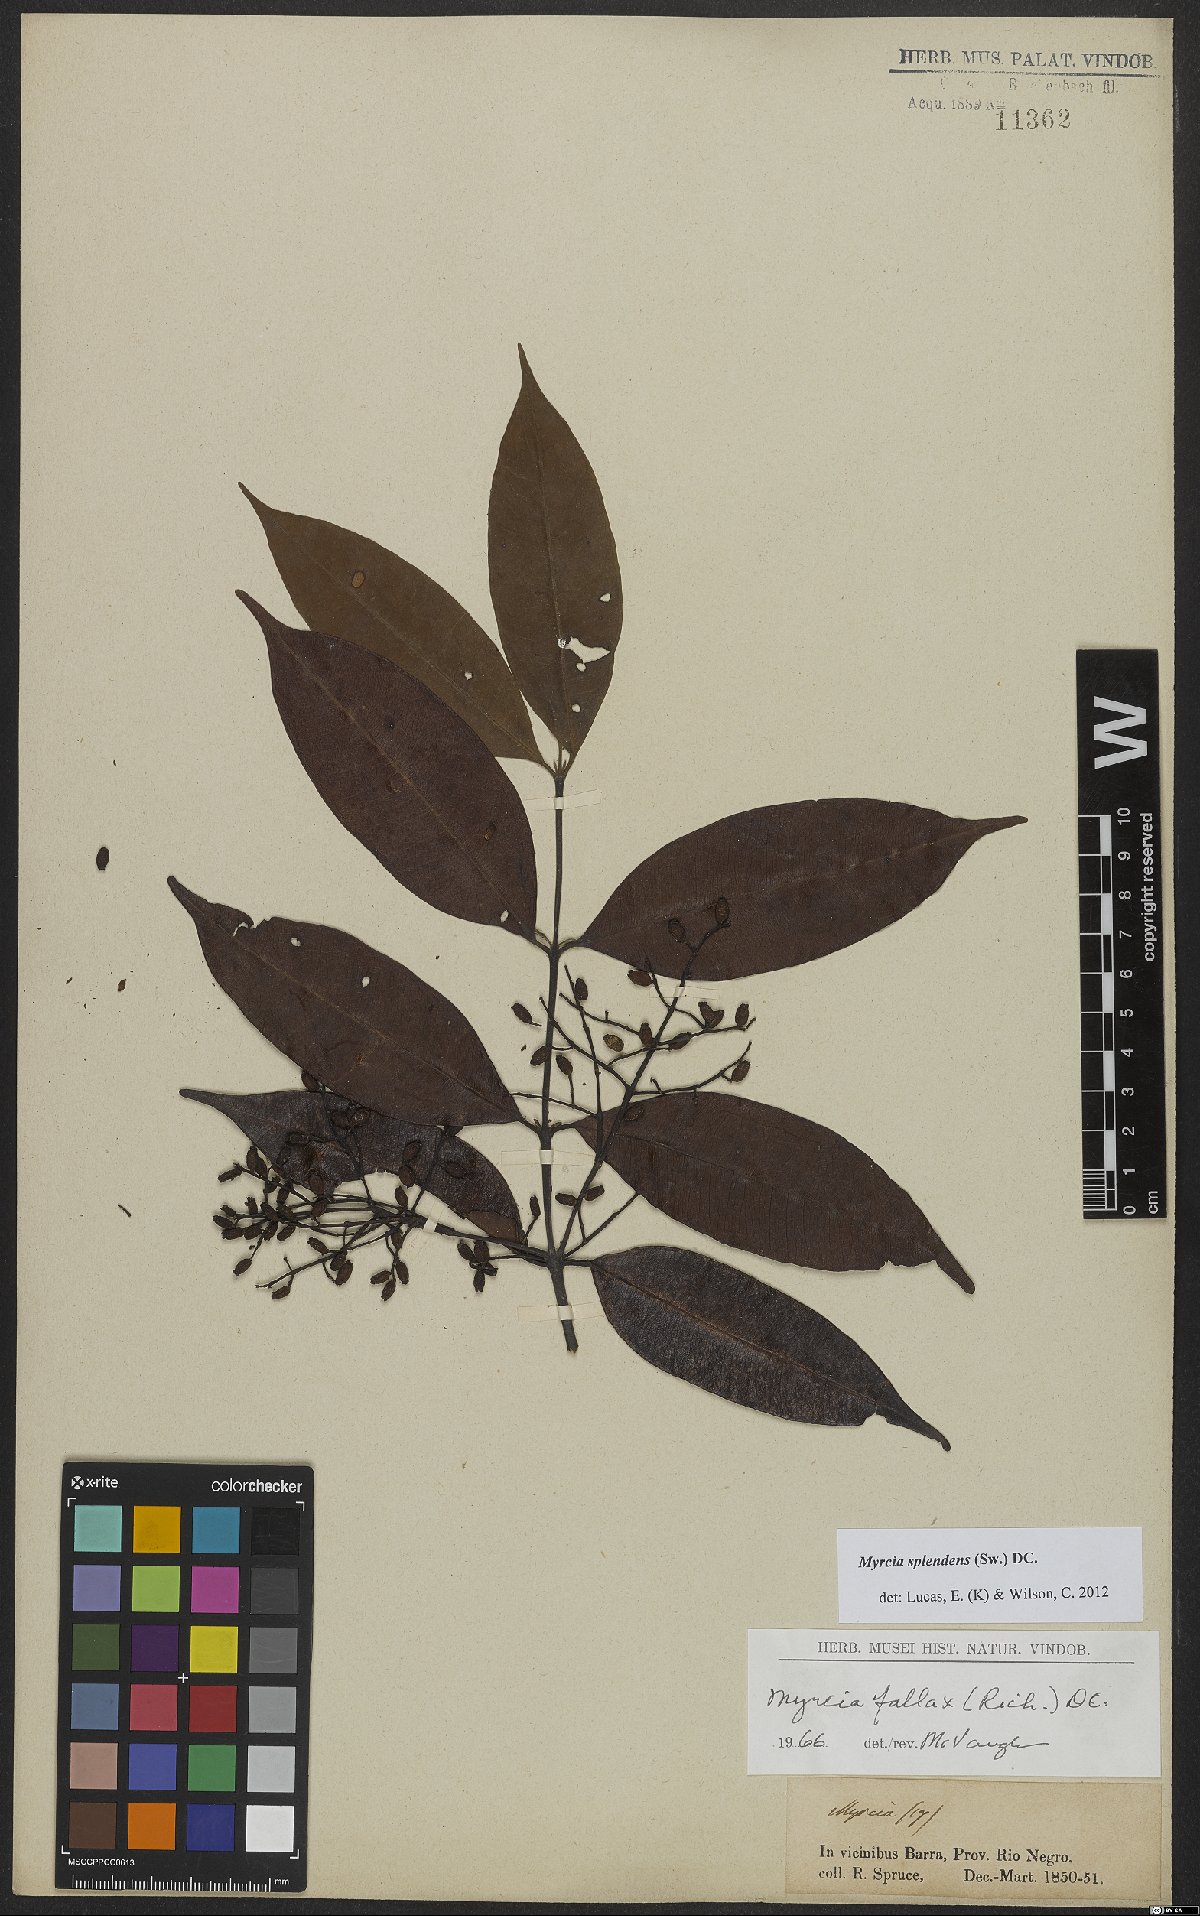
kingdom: Plantae
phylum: Tracheophyta
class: Magnoliopsida
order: Myrtales
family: Myrtaceae
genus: Myrcia
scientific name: Myrcia splendens
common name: Surinam cherry
